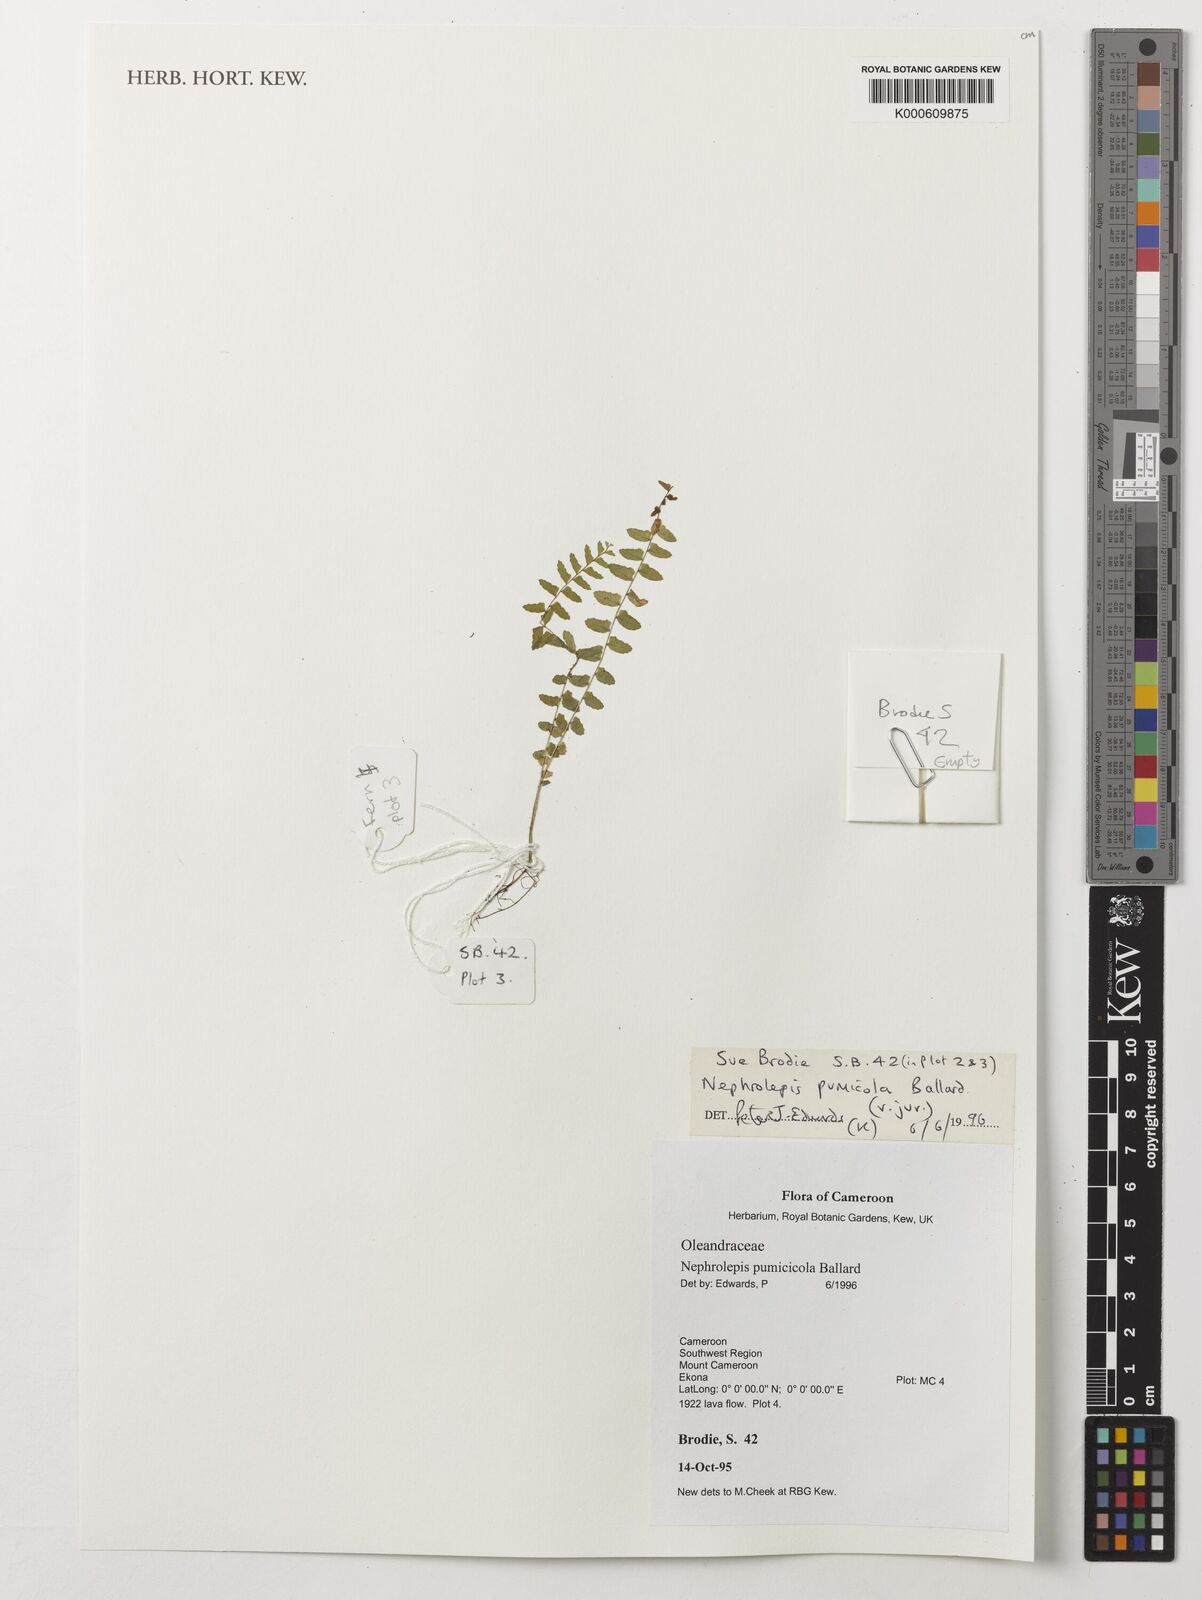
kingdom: Plantae
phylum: Tracheophyta
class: Polypodiopsida
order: Polypodiales
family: Nephrolepidaceae
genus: Nephrolepis
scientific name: Nephrolepis cordifolia
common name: Narrow swordfern
